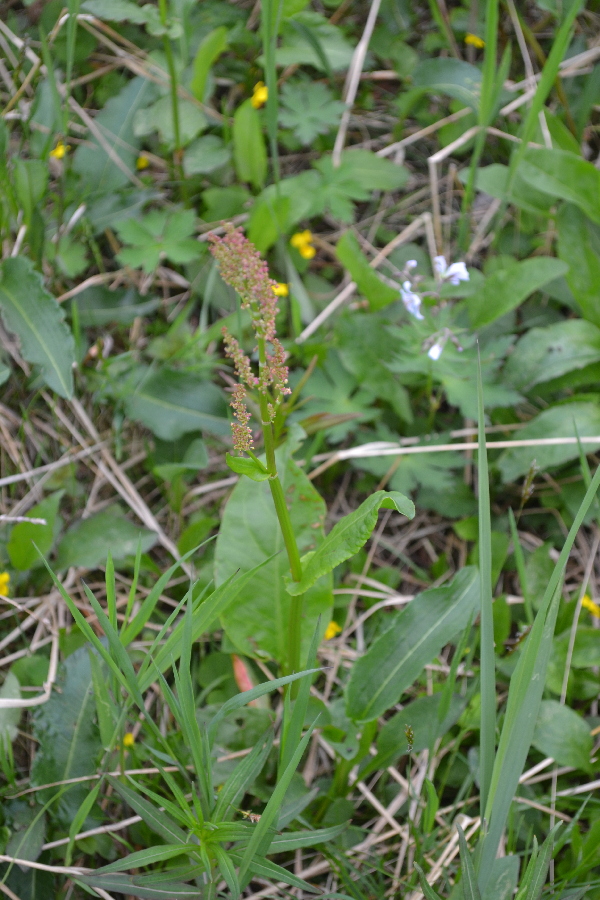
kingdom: Plantae
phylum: Tracheophyta
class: Magnoliopsida
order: Caryophyllales
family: Polygonaceae
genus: Rumex
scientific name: Rumex lapponicus
